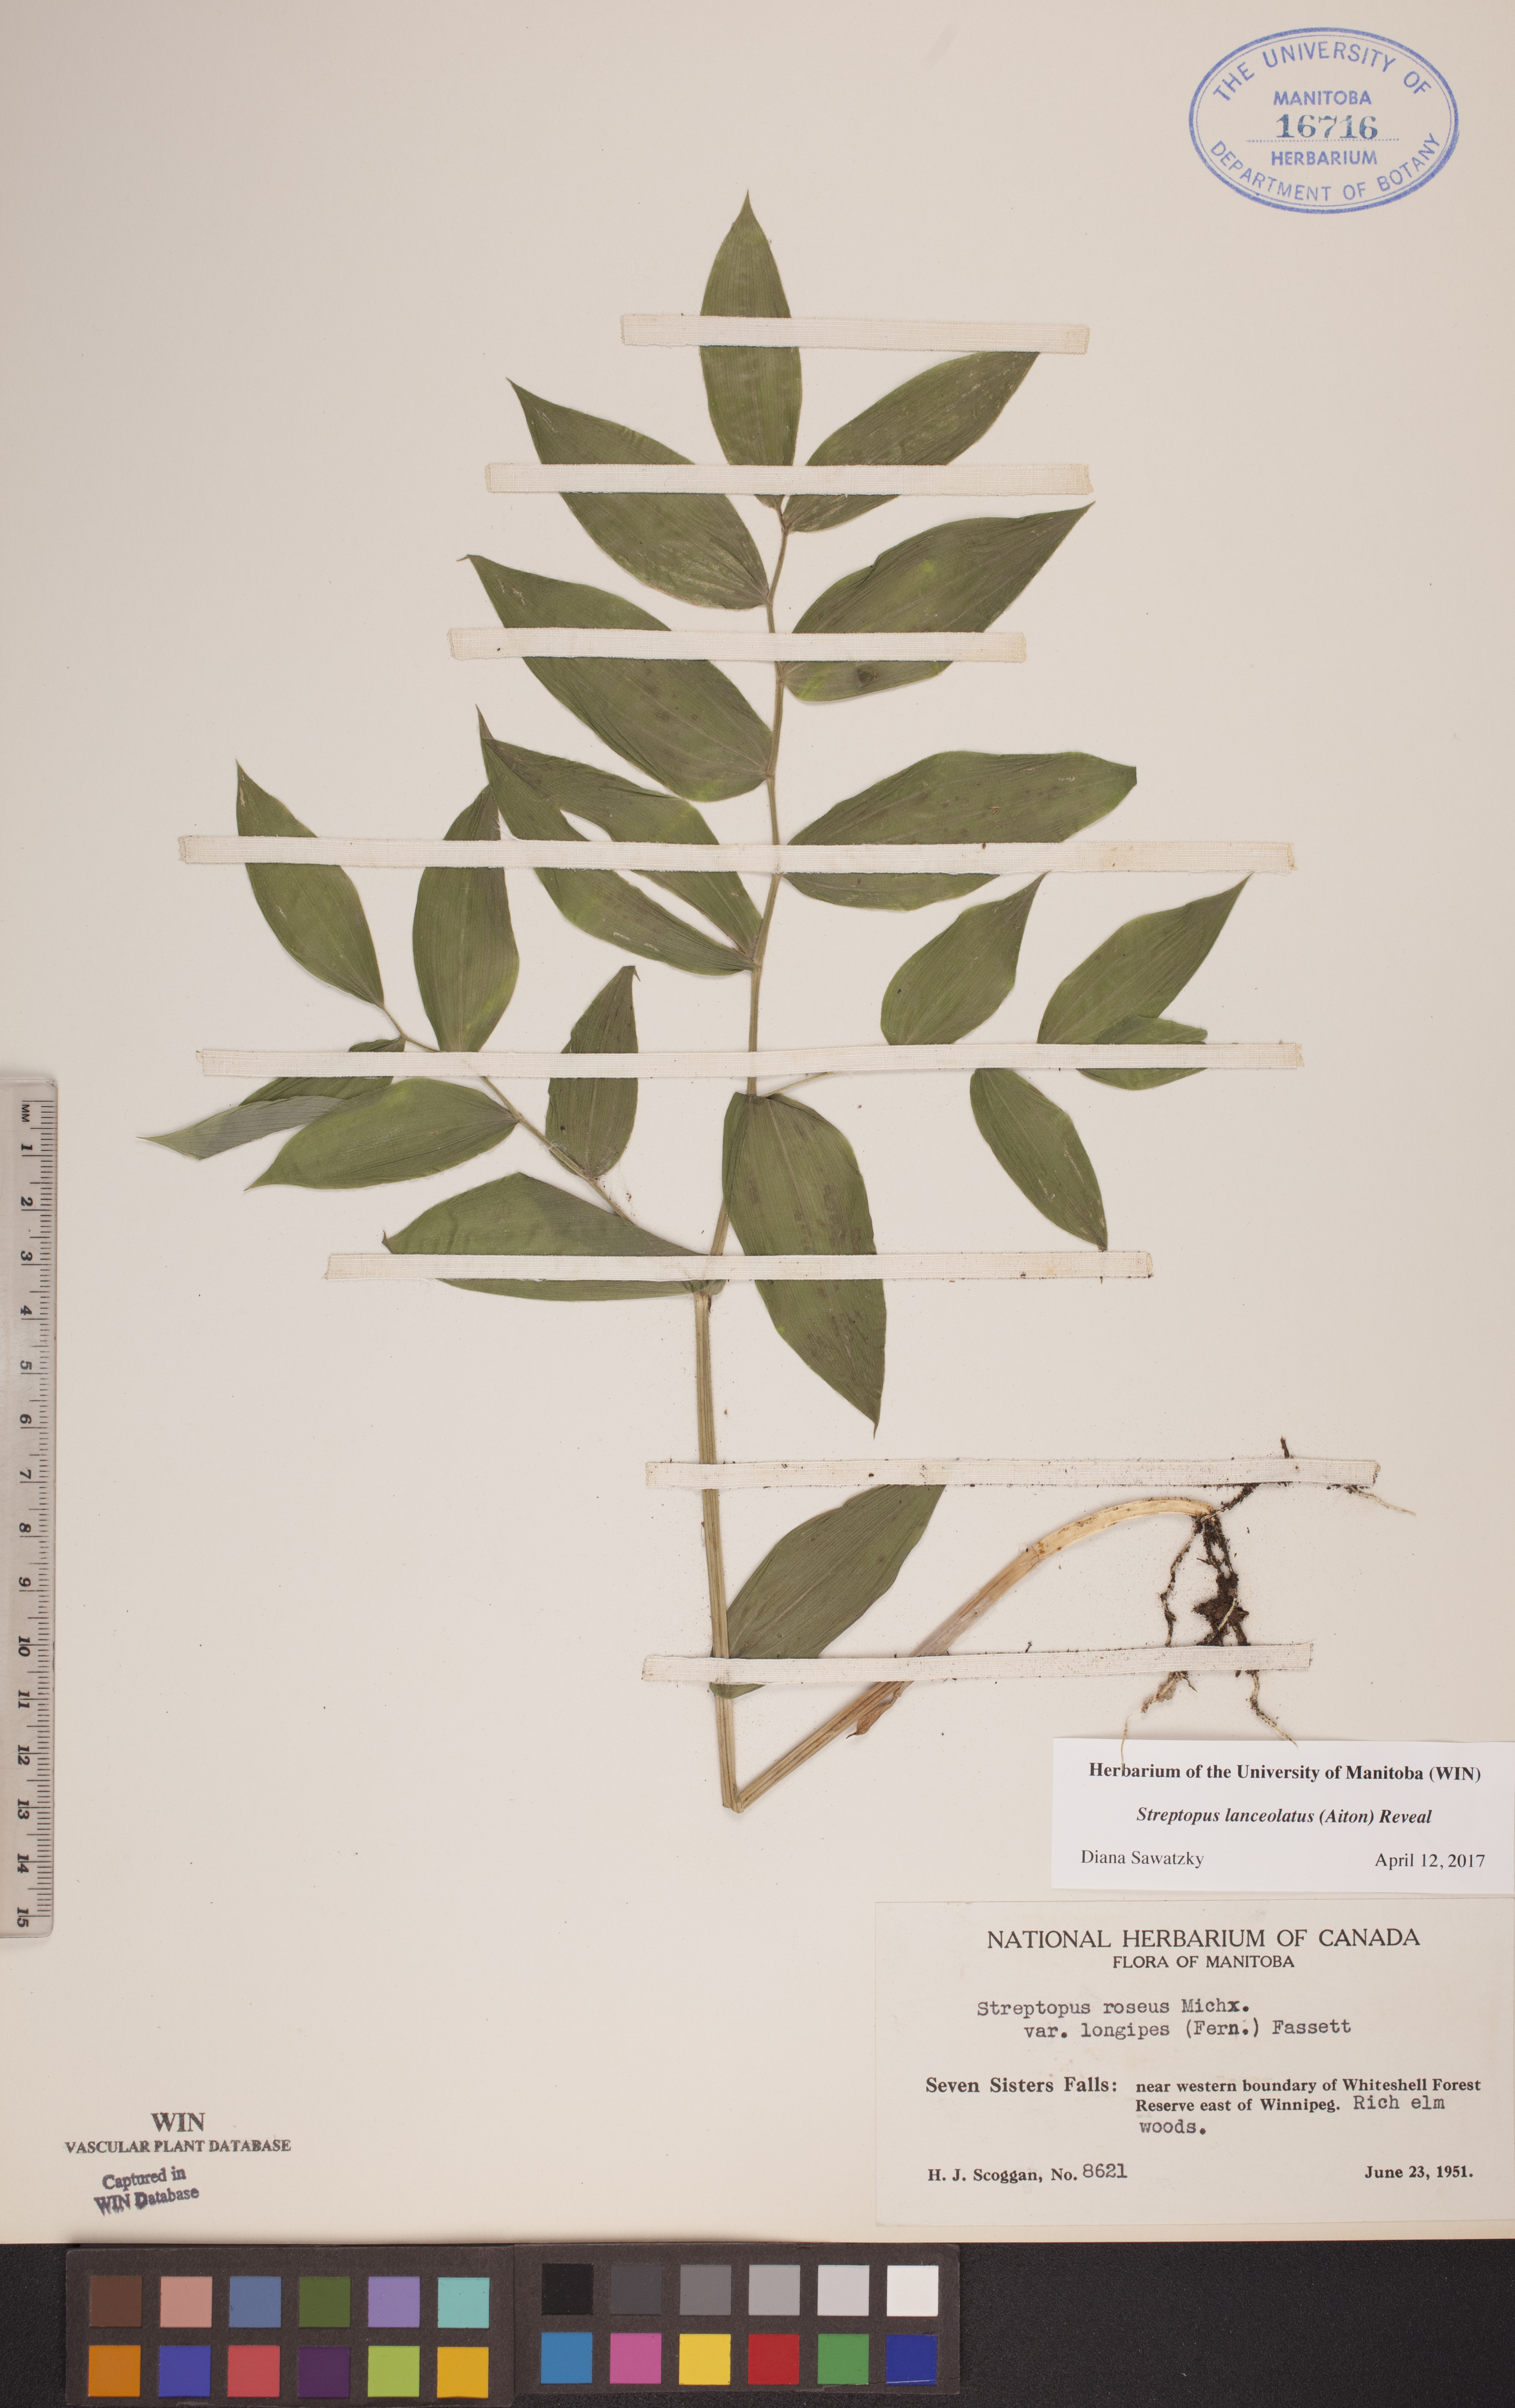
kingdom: Plantae
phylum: Tracheophyta
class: Liliopsida
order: Liliales
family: Liliaceae
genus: Streptopus
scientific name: Streptopus lanceolatus
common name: Rose mandarin
